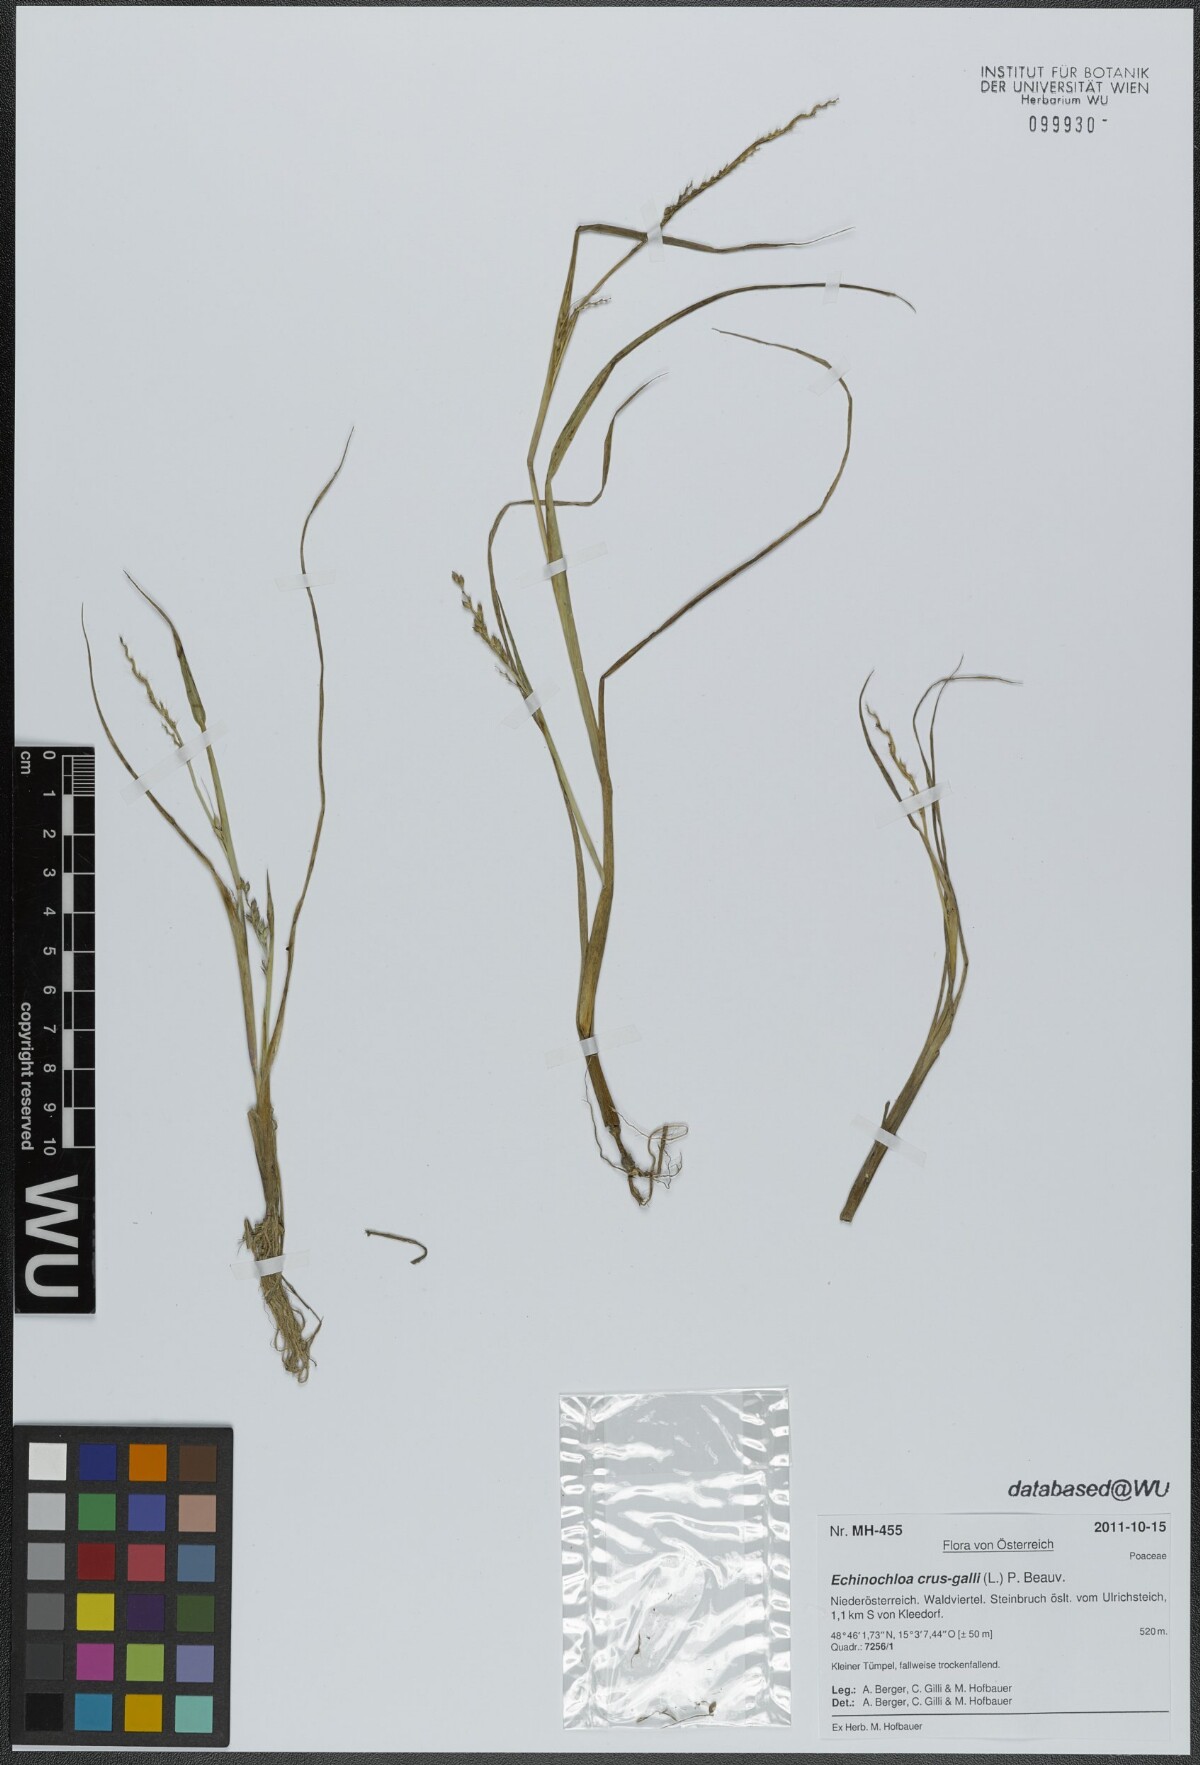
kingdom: Plantae
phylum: Tracheophyta
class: Liliopsida
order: Poales
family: Poaceae
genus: Echinochloa
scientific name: Echinochloa crus-galli
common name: Cockspur
